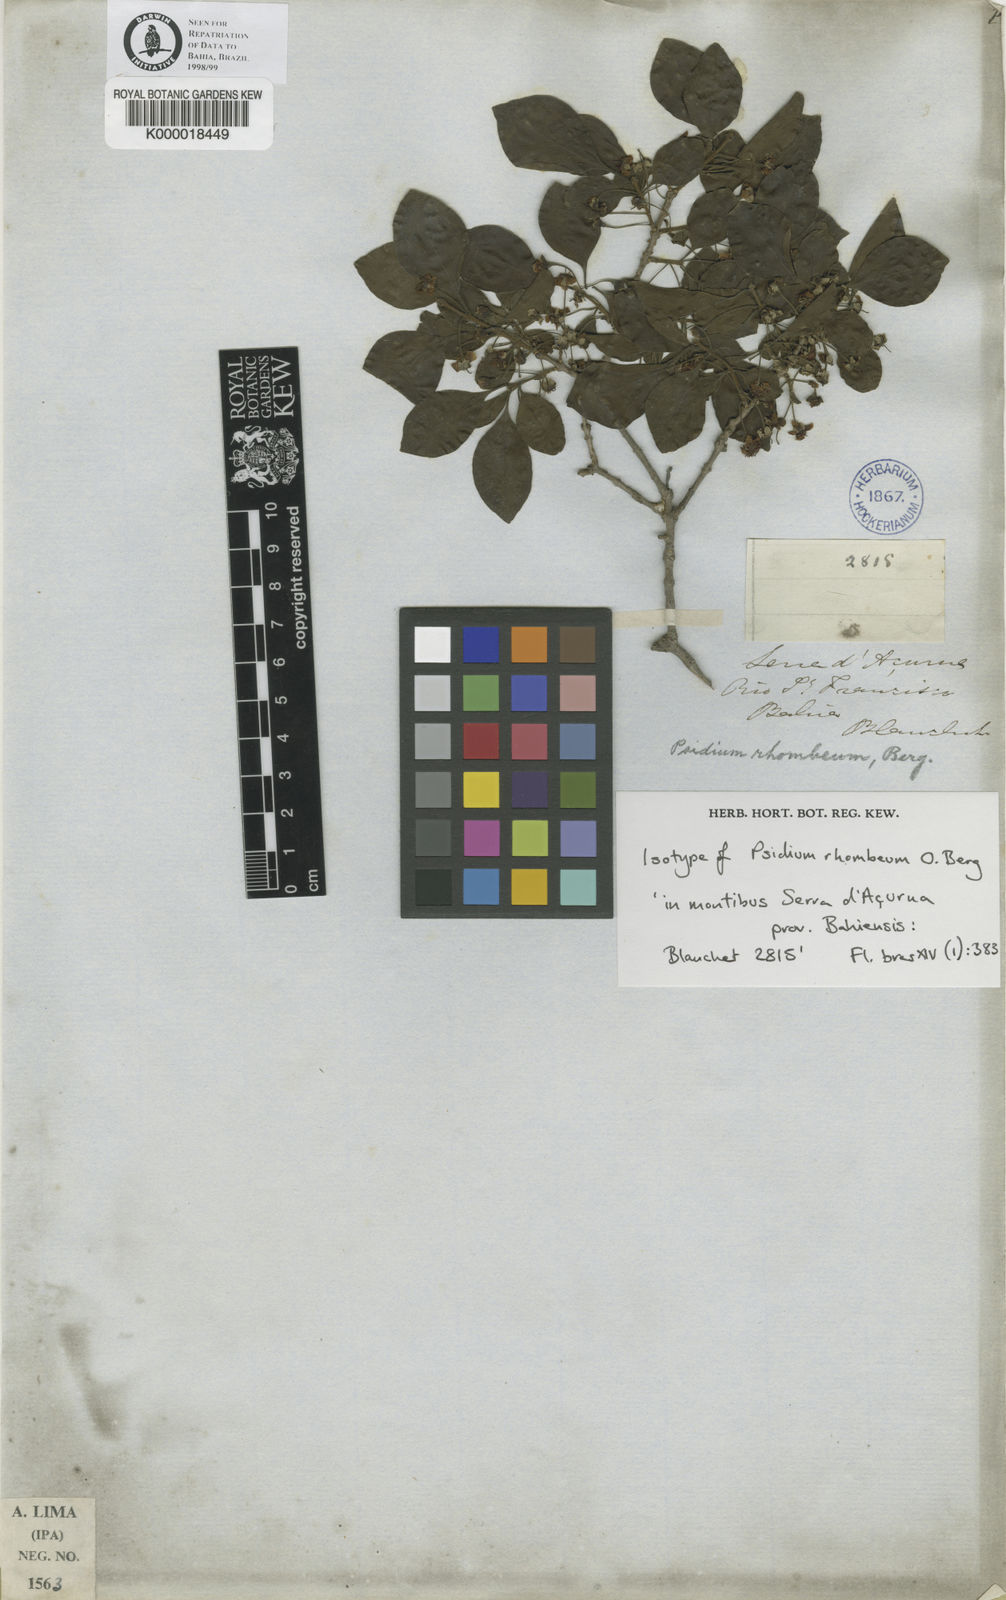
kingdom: Plantae
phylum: Tracheophyta
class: Magnoliopsida
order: Myrtales
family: Myrtaceae
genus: Psidium
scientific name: Psidium rhombeum
